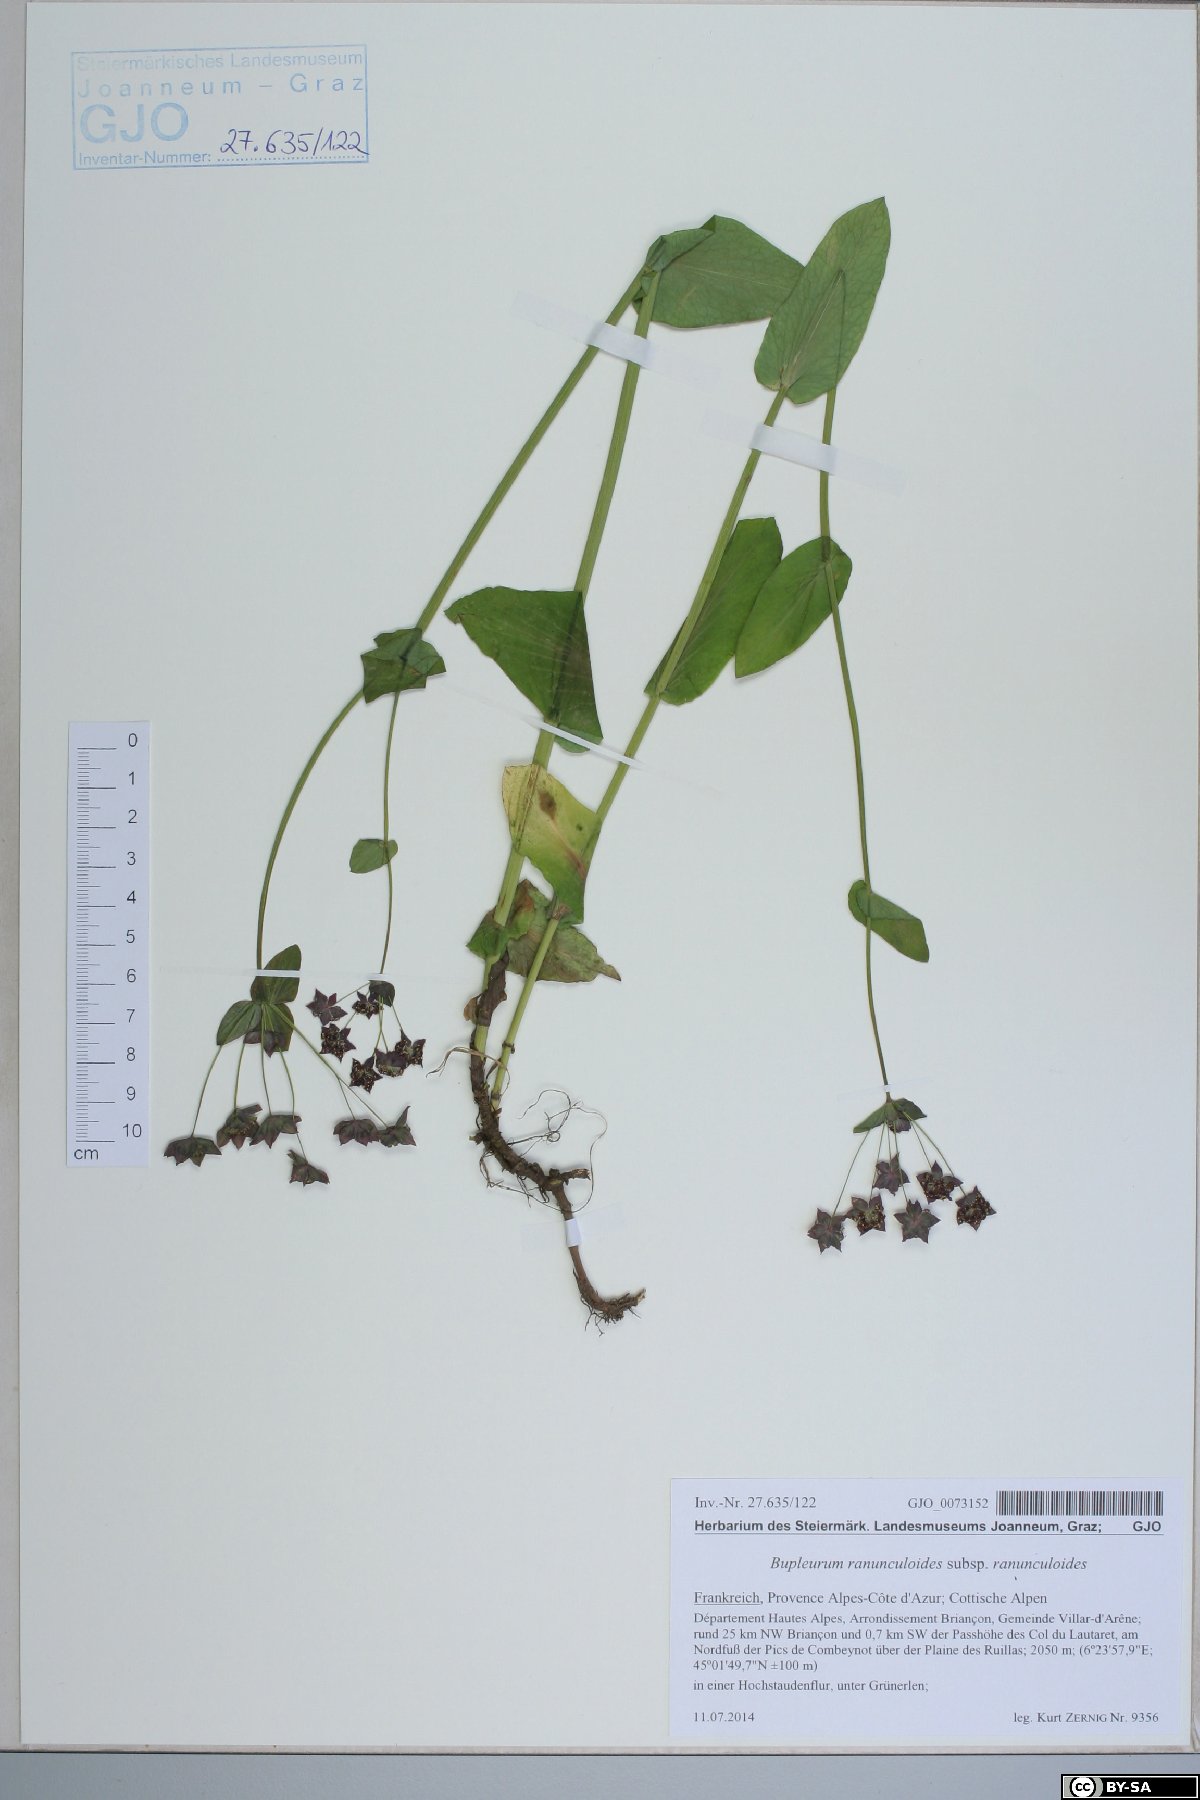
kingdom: Plantae
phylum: Tracheophyta
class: Magnoliopsida
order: Apiales
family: Apiaceae
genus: Bupleurum
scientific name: Bupleurum longifolium
